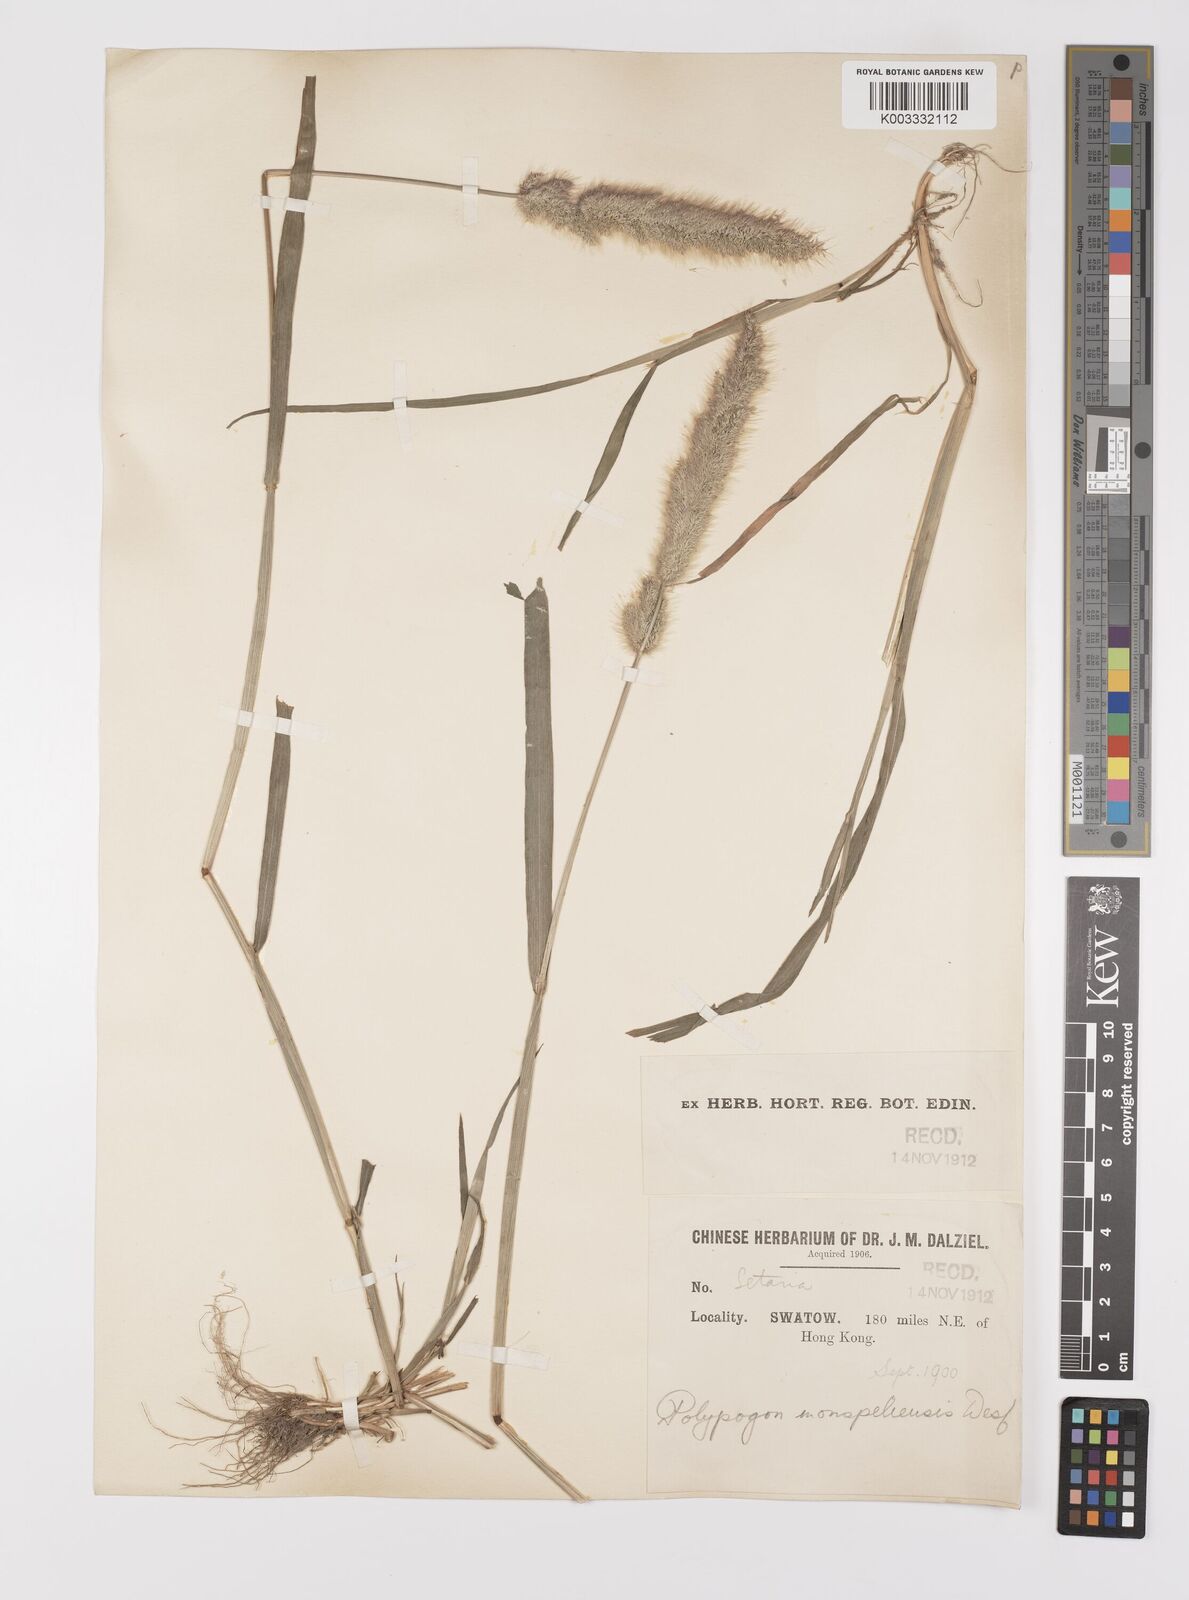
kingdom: Plantae
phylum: Tracheophyta
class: Liliopsida
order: Poales
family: Poaceae
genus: Polypogon
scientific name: Polypogon monspeliensis
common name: Annual rabbitsfoot grass
